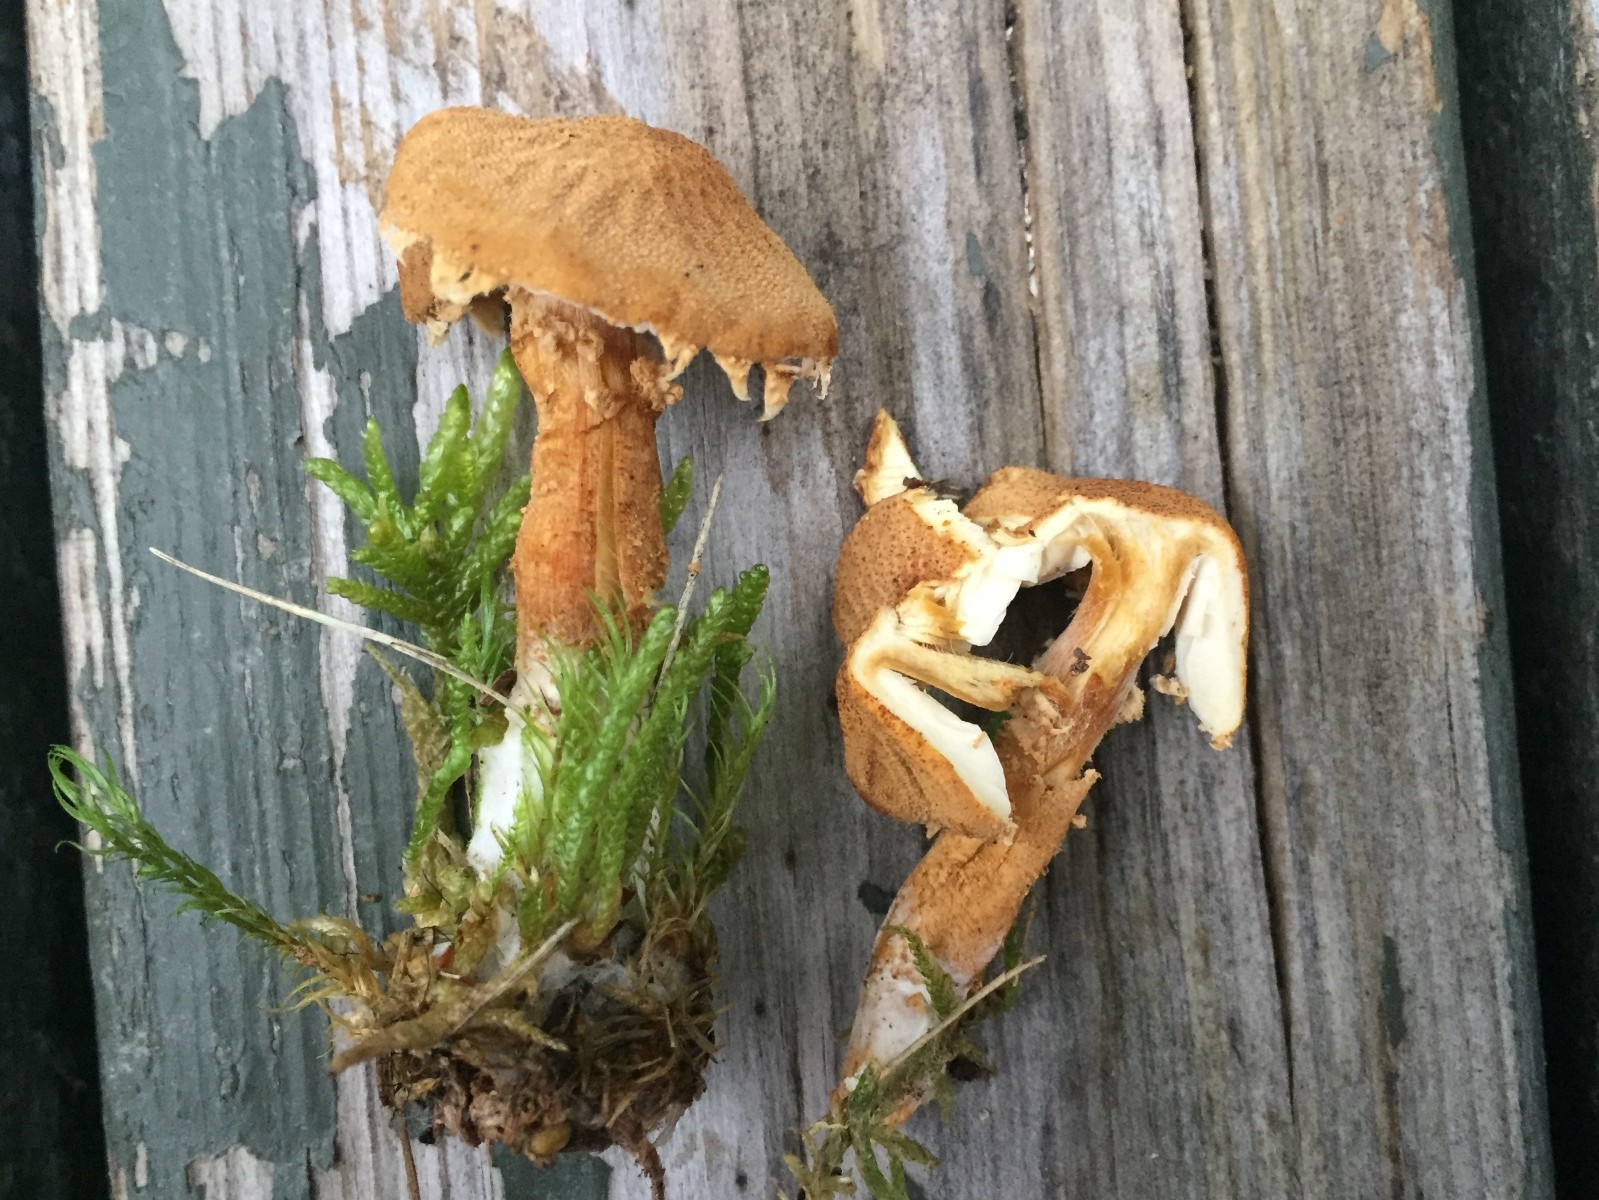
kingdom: Fungi
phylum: Basidiomycota
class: Agaricomycetes
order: Agaricales
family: Tricholomataceae
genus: Cystoderma
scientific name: Cystoderma amianthinum
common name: okkergul grynhat
